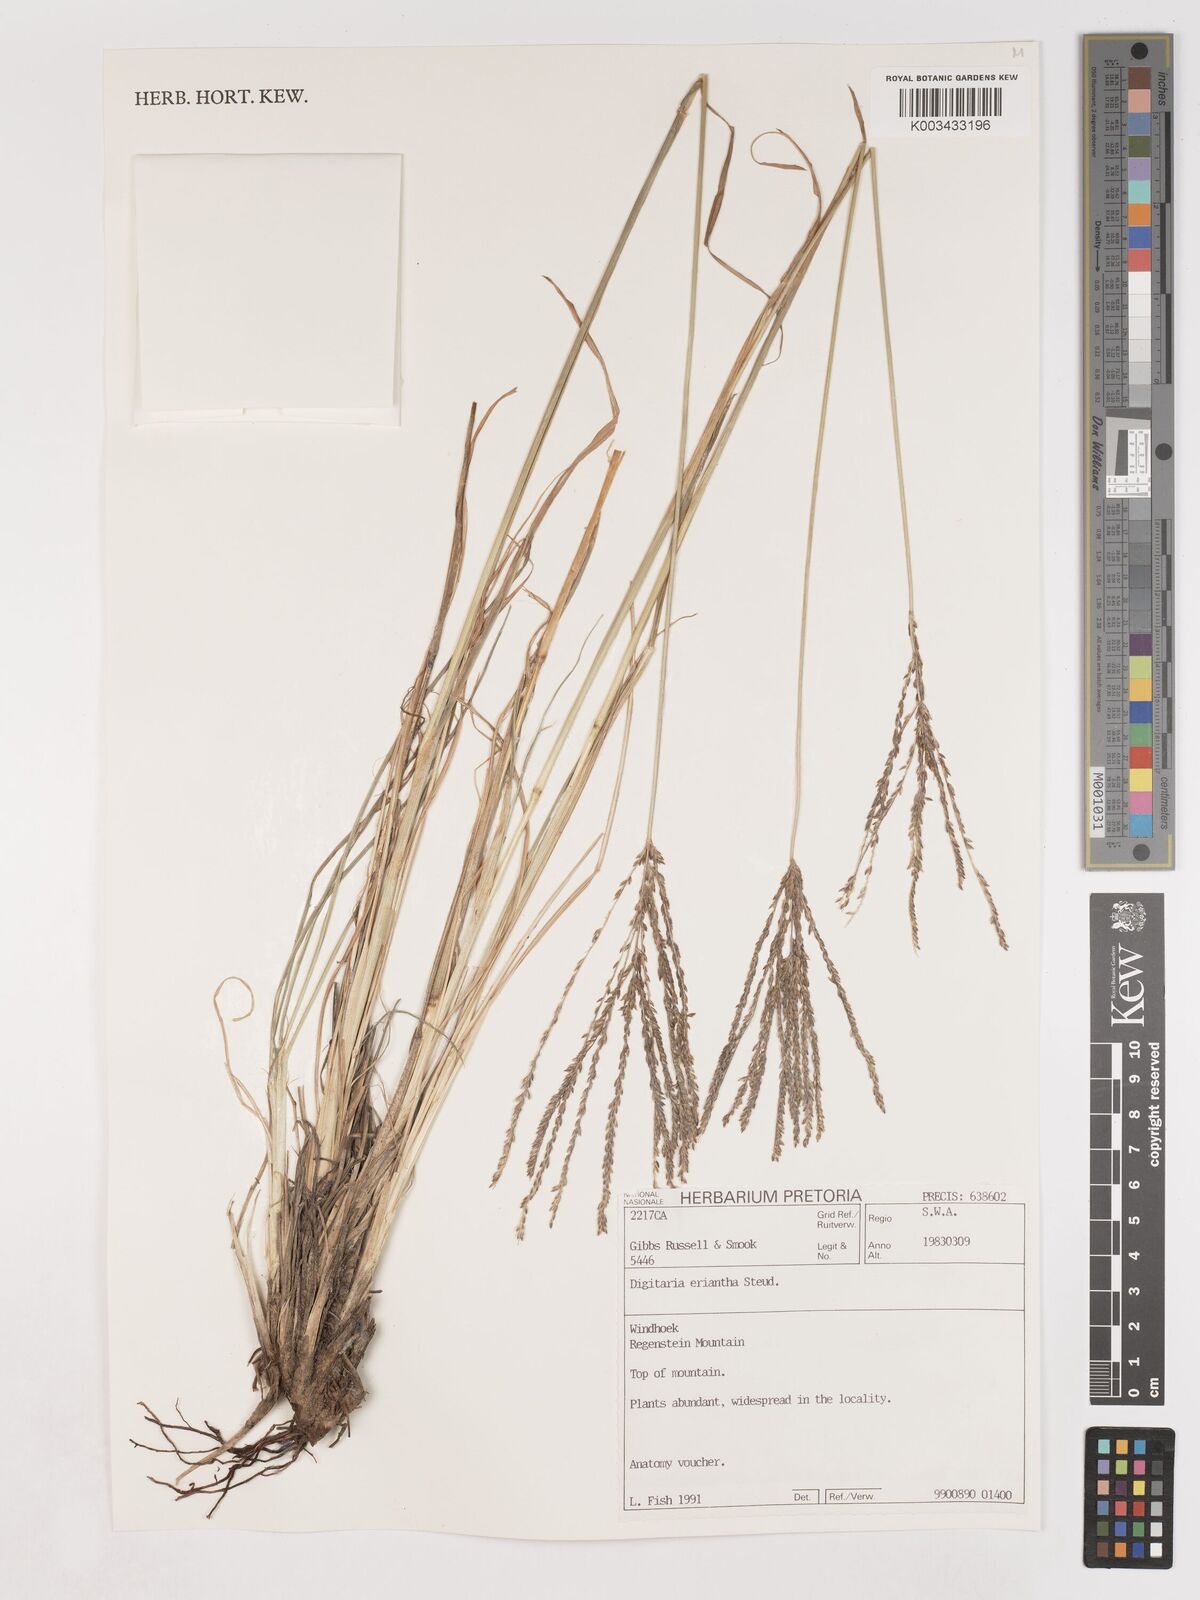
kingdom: Plantae
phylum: Tracheophyta
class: Liliopsida
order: Poales
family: Poaceae
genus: Digitaria
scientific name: Digitaria eriantha
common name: Digitgrass
